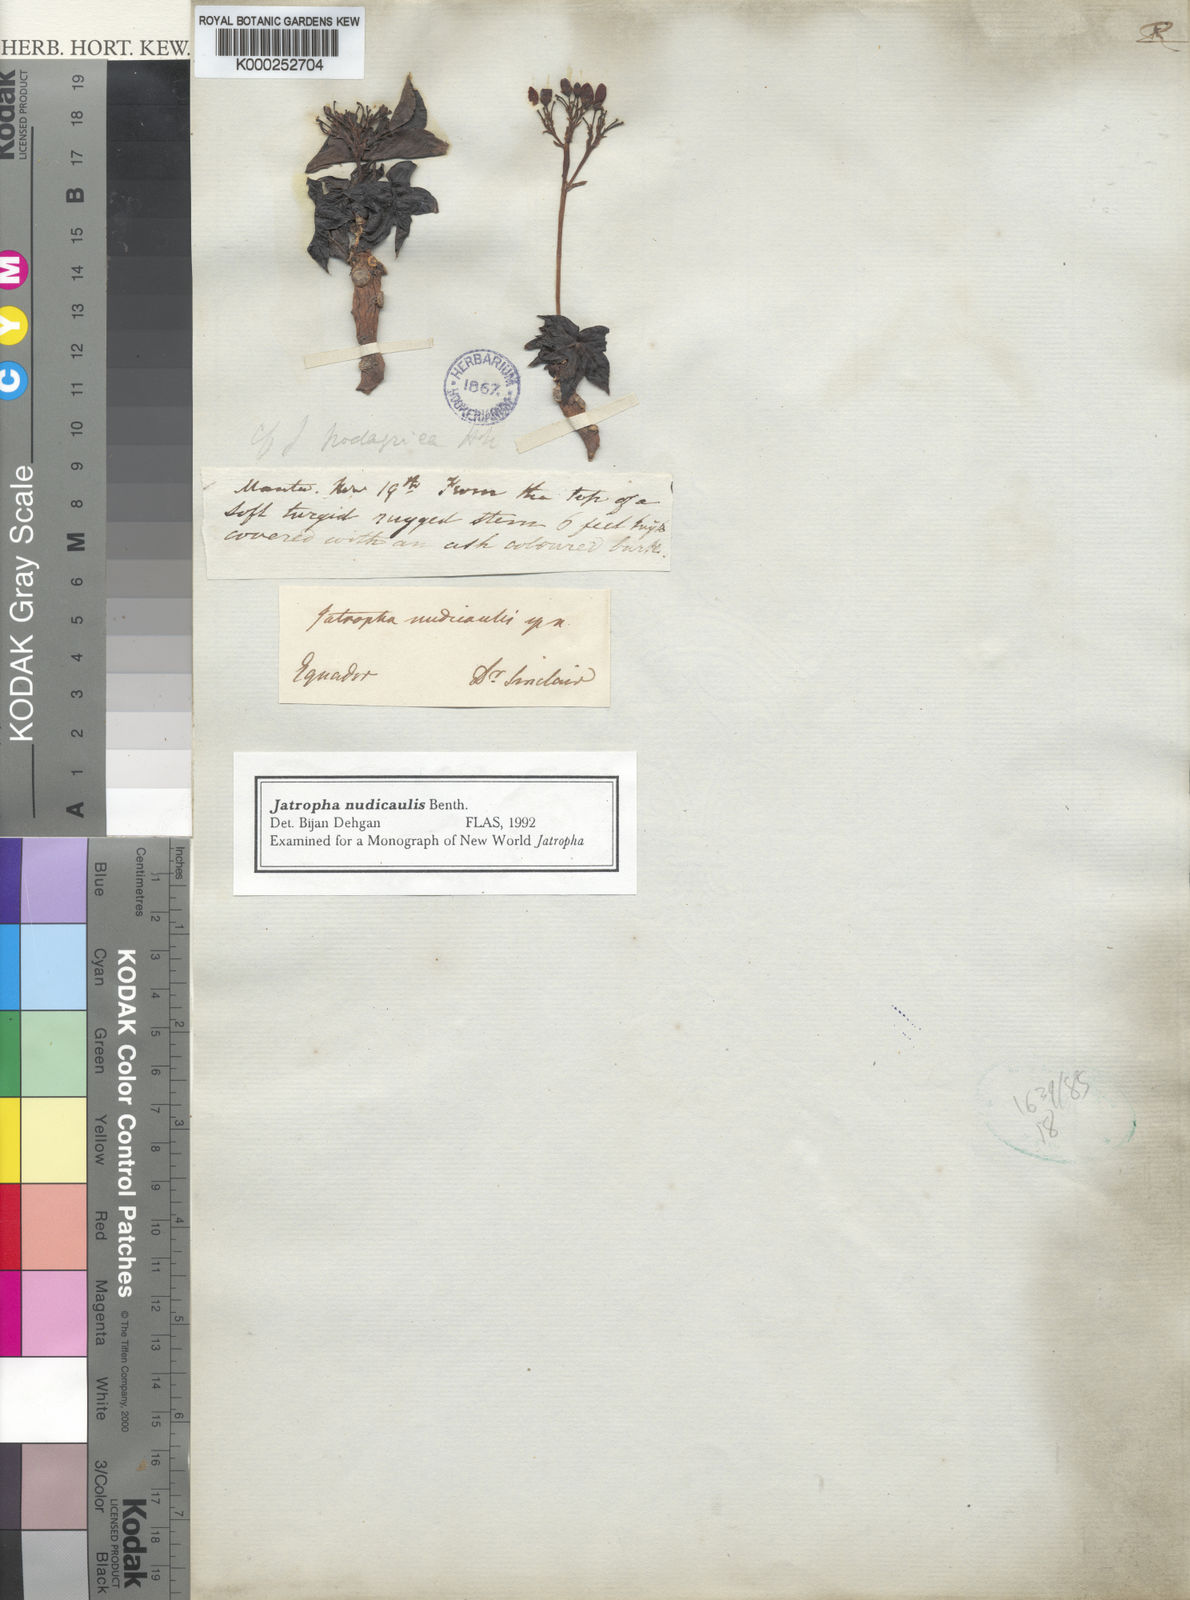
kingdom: Plantae
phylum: Tracheophyta
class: Magnoliopsida
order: Malpighiales
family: Euphorbiaceae
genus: Jatropha
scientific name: Jatropha nudicaulis
